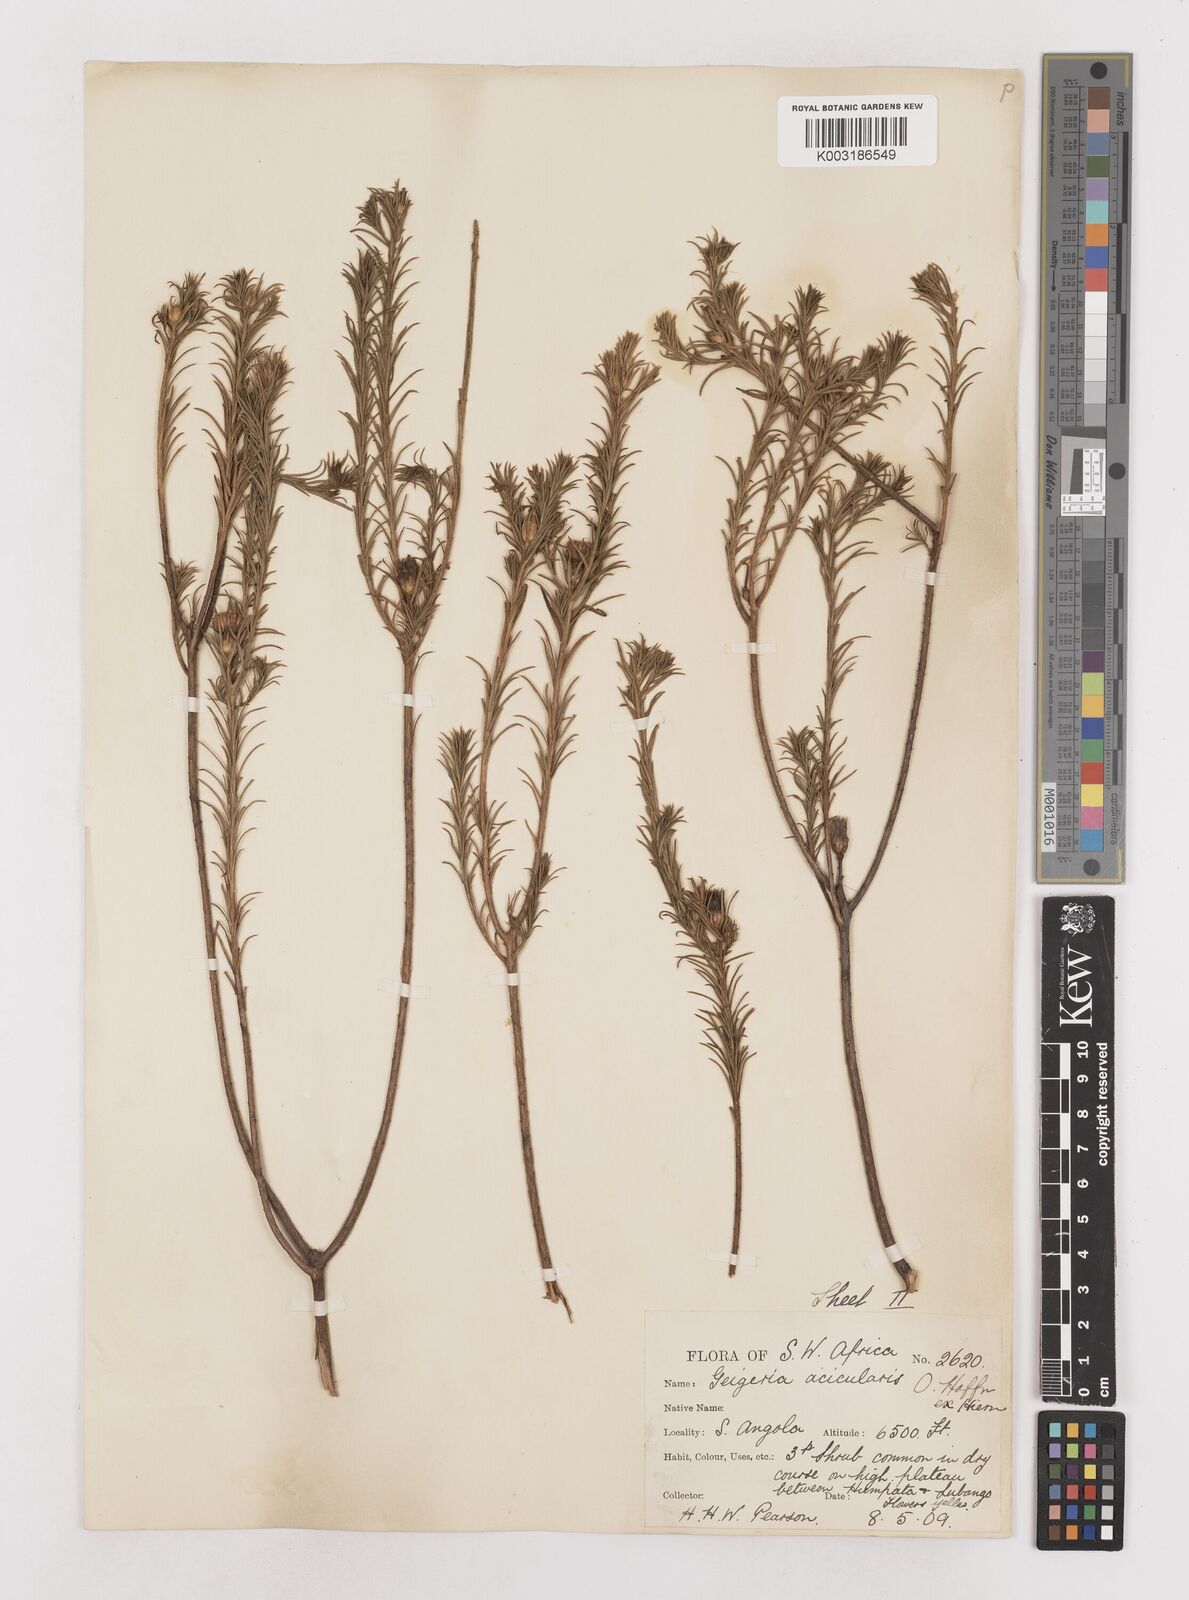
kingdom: Plantae
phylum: Tracheophyta
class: Magnoliopsida
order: Asterales
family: Asteraceae
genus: Geigeria
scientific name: Geigeria acicularis
